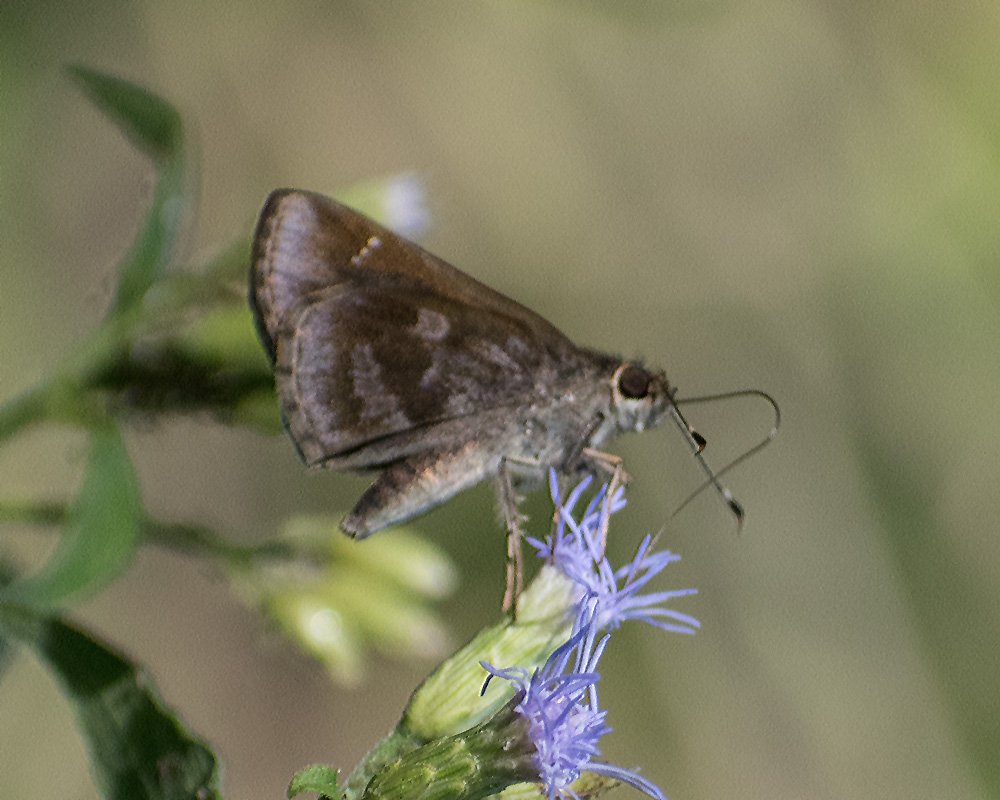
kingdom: Animalia
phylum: Arthropoda
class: Insecta
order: Lepidoptera
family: Hesperiidae
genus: Cymaenes
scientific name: Cymaenes odilia
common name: Fawn-spotted Skipper
